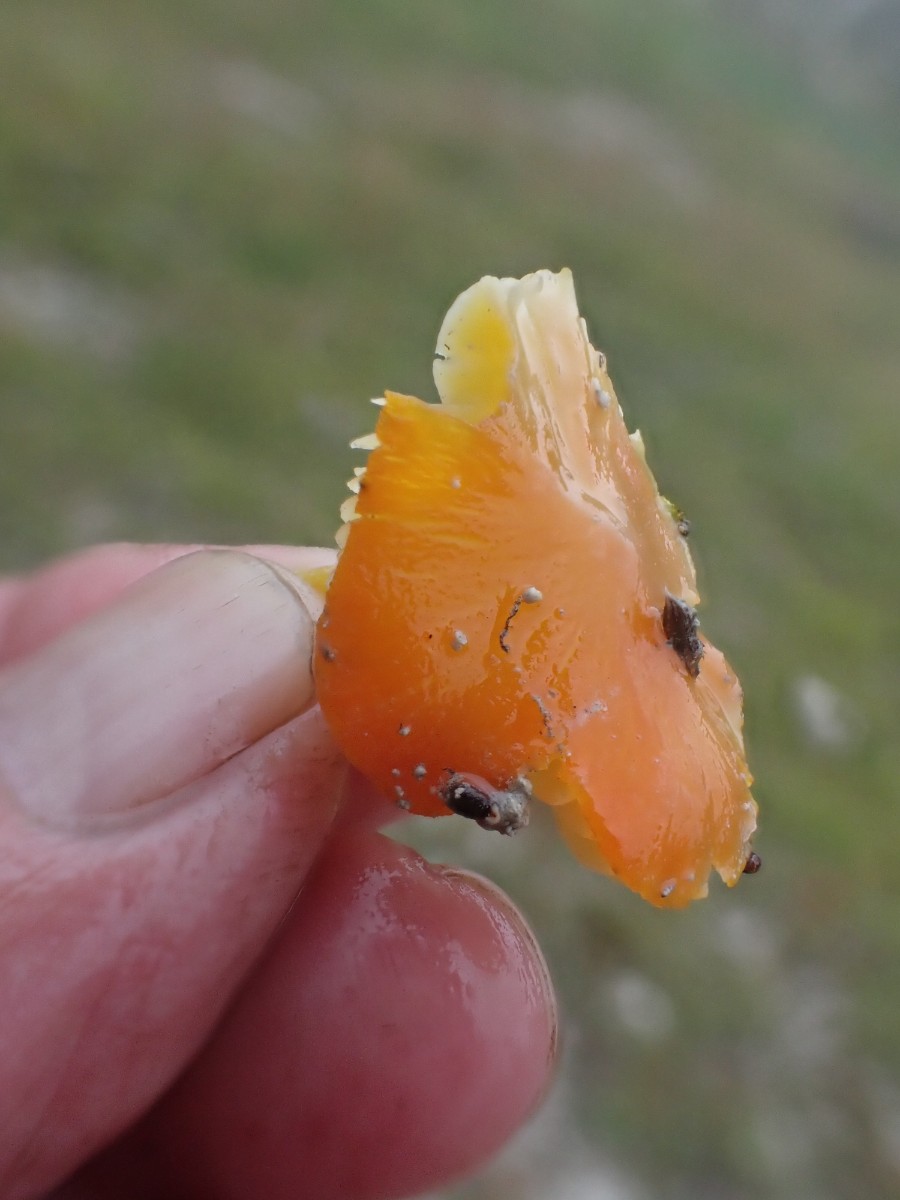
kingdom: Fungi
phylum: Basidiomycota
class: Agaricomycetes
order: Agaricales
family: Hygrophoraceae
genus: Hygrocybe
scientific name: Hygrocybe acutoconica
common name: Konrads vokshat
